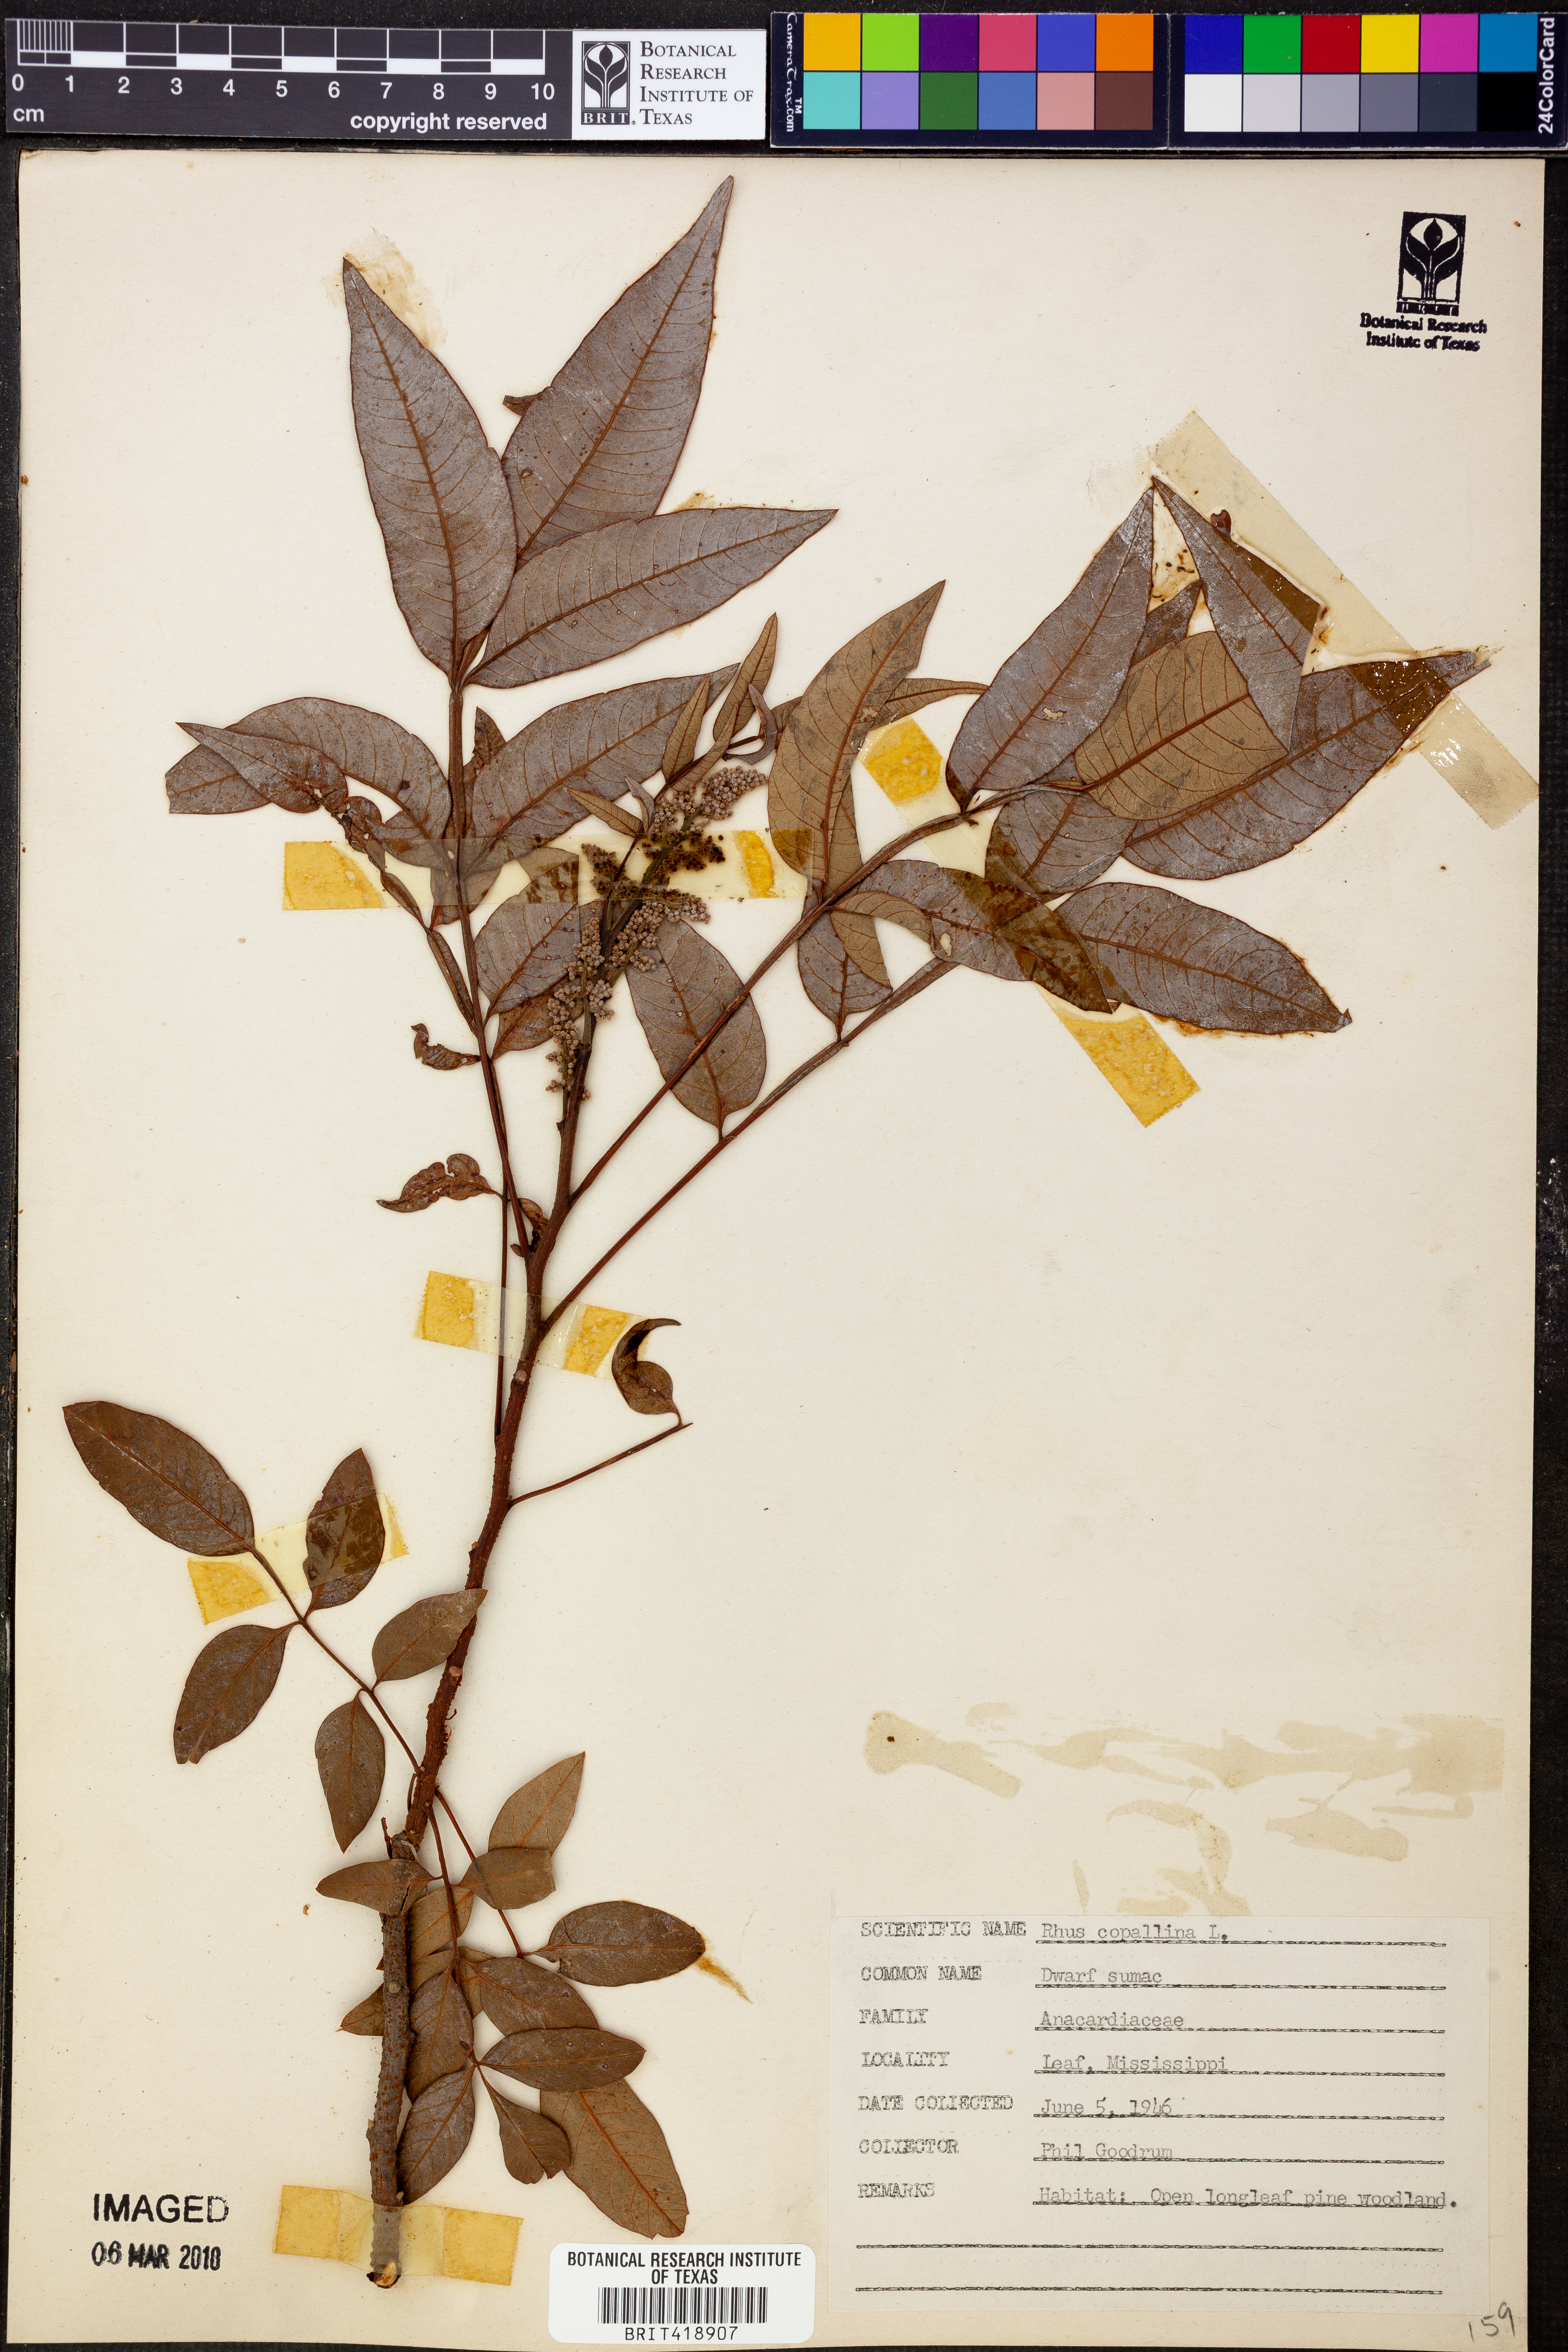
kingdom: Plantae
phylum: Tracheophyta
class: Magnoliopsida
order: Sapindales
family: Anacardiaceae
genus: Rhus
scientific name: Rhus copallina
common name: Shining sumac
